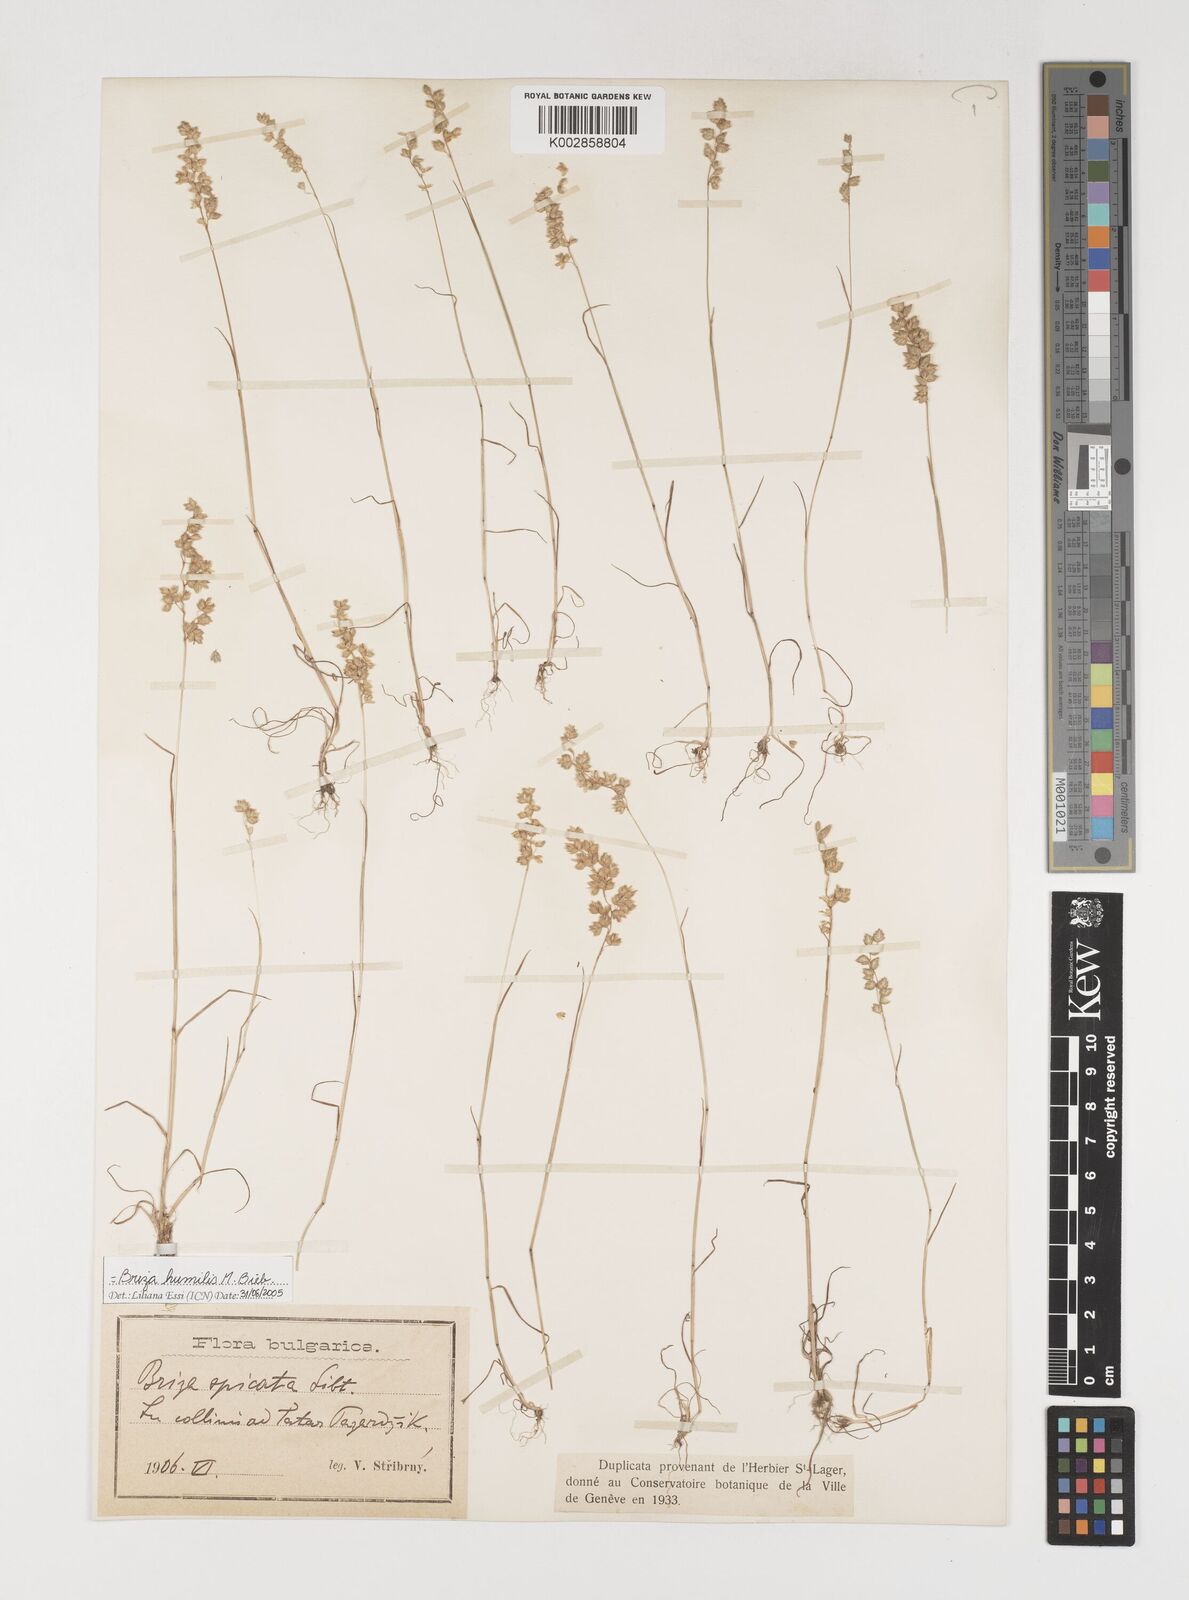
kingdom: Plantae
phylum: Tracheophyta
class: Liliopsida
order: Poales
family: Poaceae
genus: Briza
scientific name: Briza humilis
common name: Spiked quaking grass
